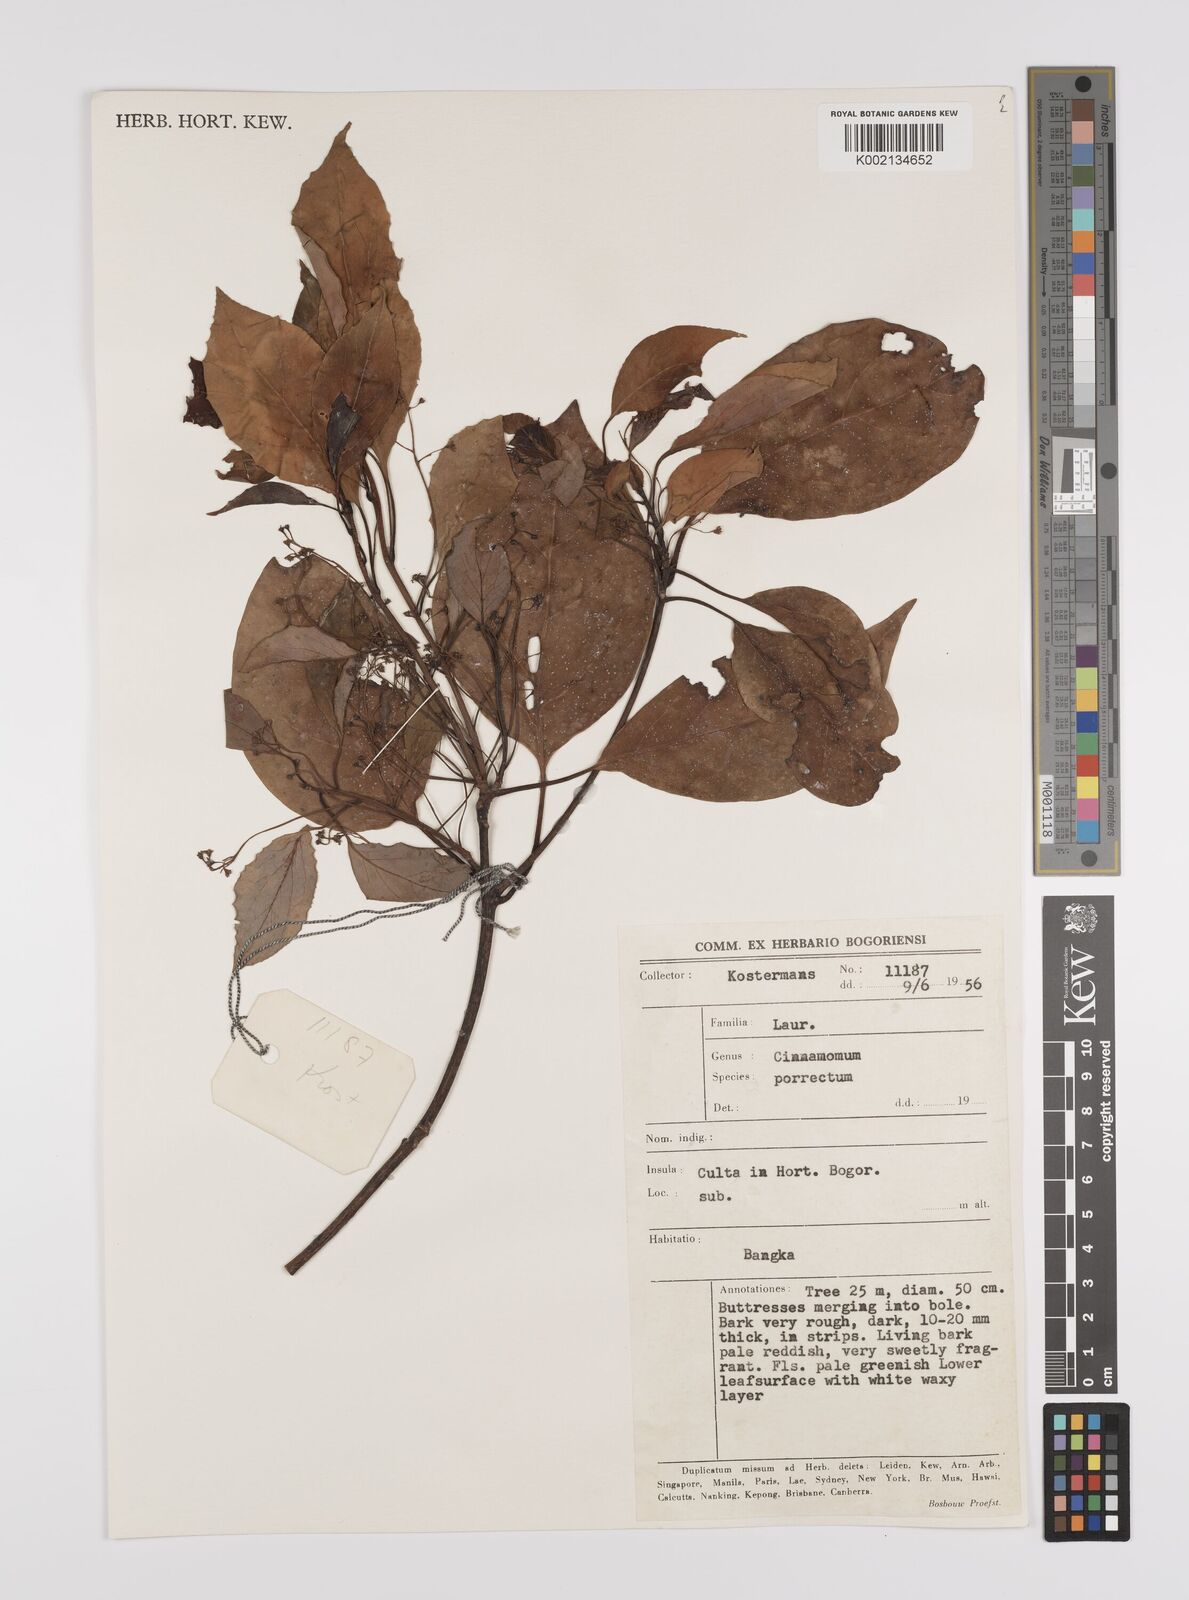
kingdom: Plantae
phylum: Tracheophyta
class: Magnoliopsida
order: Laurales
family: Lauraceae
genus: Cinnamomum
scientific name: Cinnamomum parthenoxylon
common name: Martaban camphor wood
